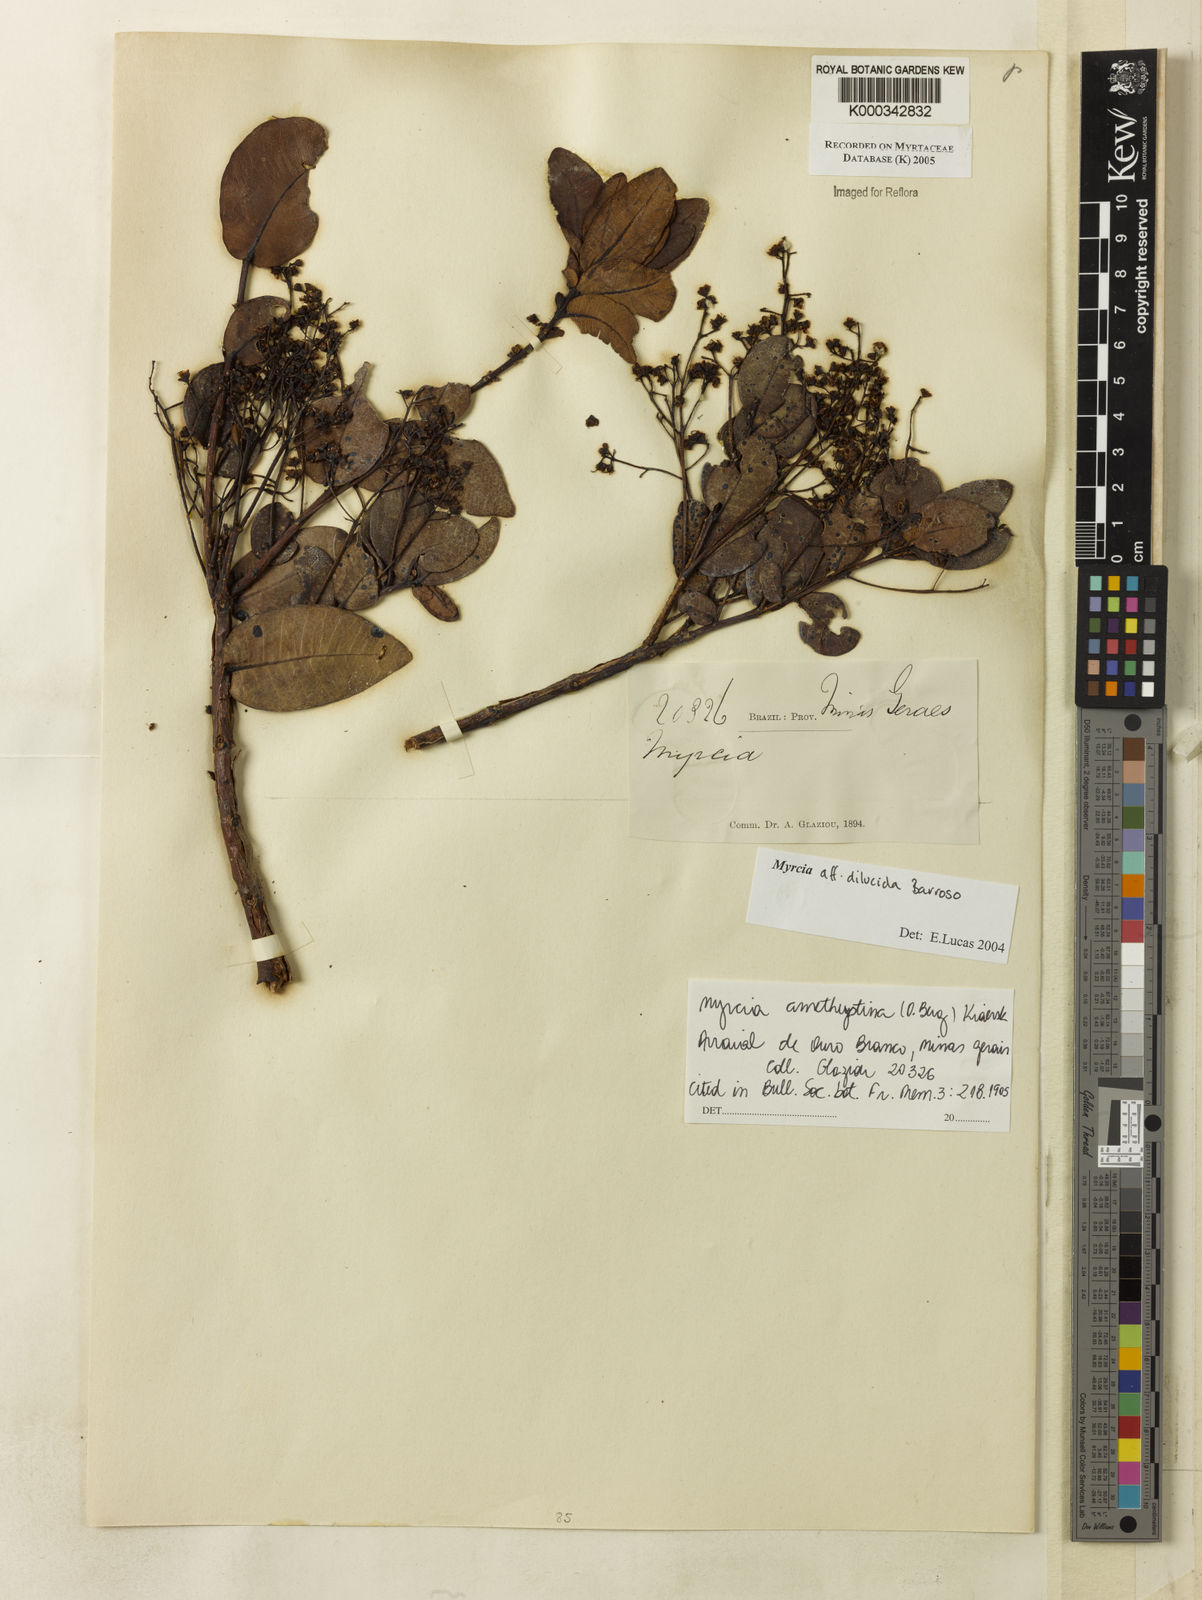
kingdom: Plantae
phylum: Tracheophyta
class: Magnoliopsida
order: Myrtales
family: Myrtaceae
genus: Myrcia
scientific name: Myrcia aethusa
